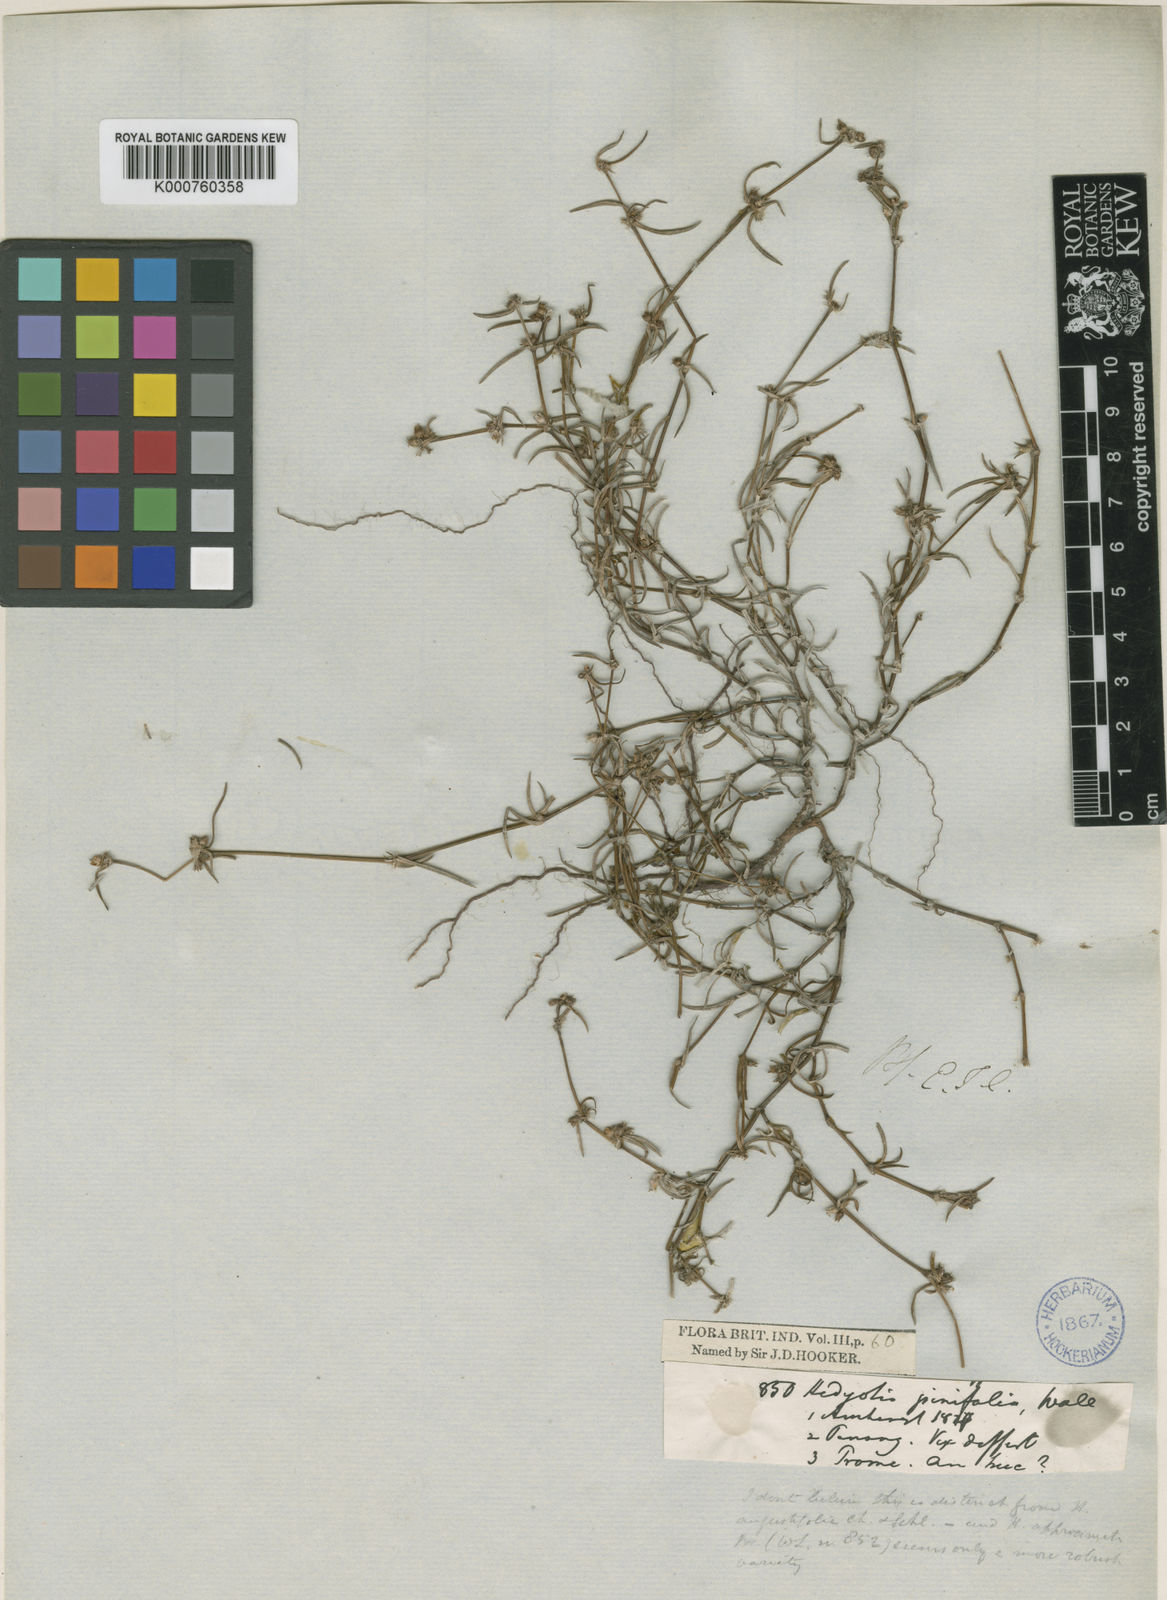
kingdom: Plantae
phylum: Tracheophyta
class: Magnoliopsida
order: Gentianales
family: Rubiaceae
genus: Scleromitrion
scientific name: Scleromitrion pinifolium
